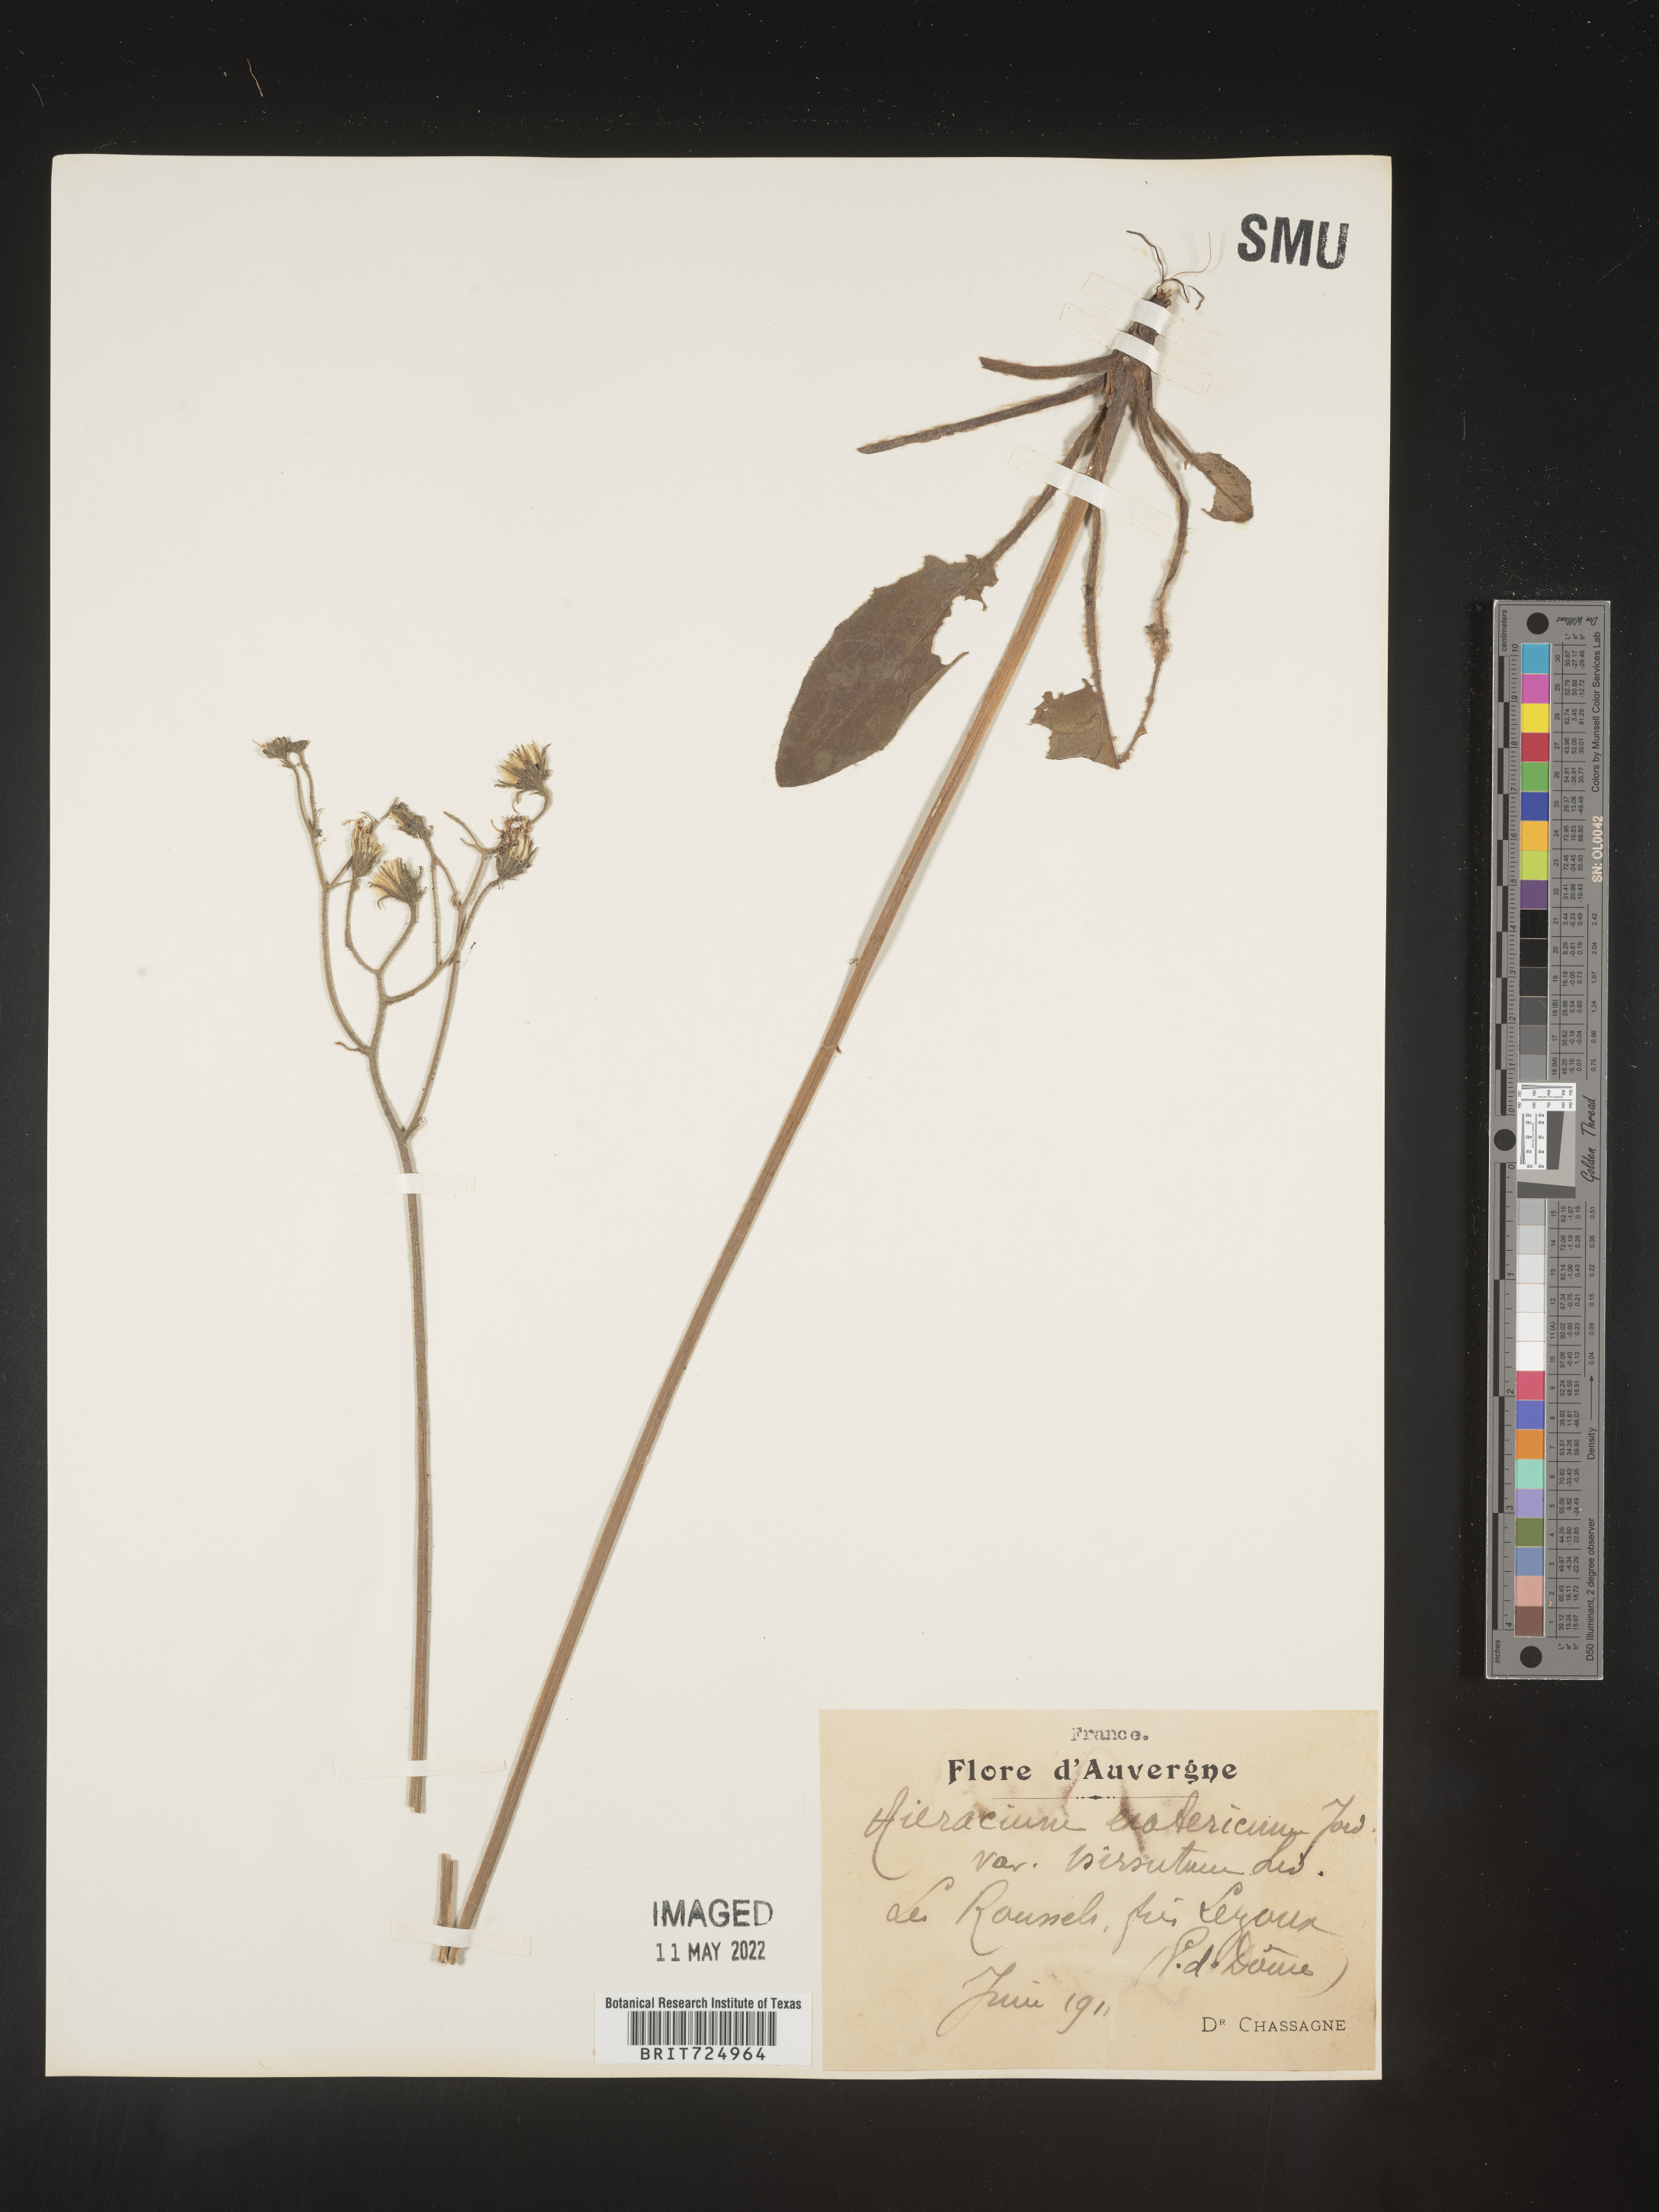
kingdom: Plantae
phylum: Tracheophyta
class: Magnoliopsida
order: Asterales
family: Asteraceae
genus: Hieracium
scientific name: Hieracium
